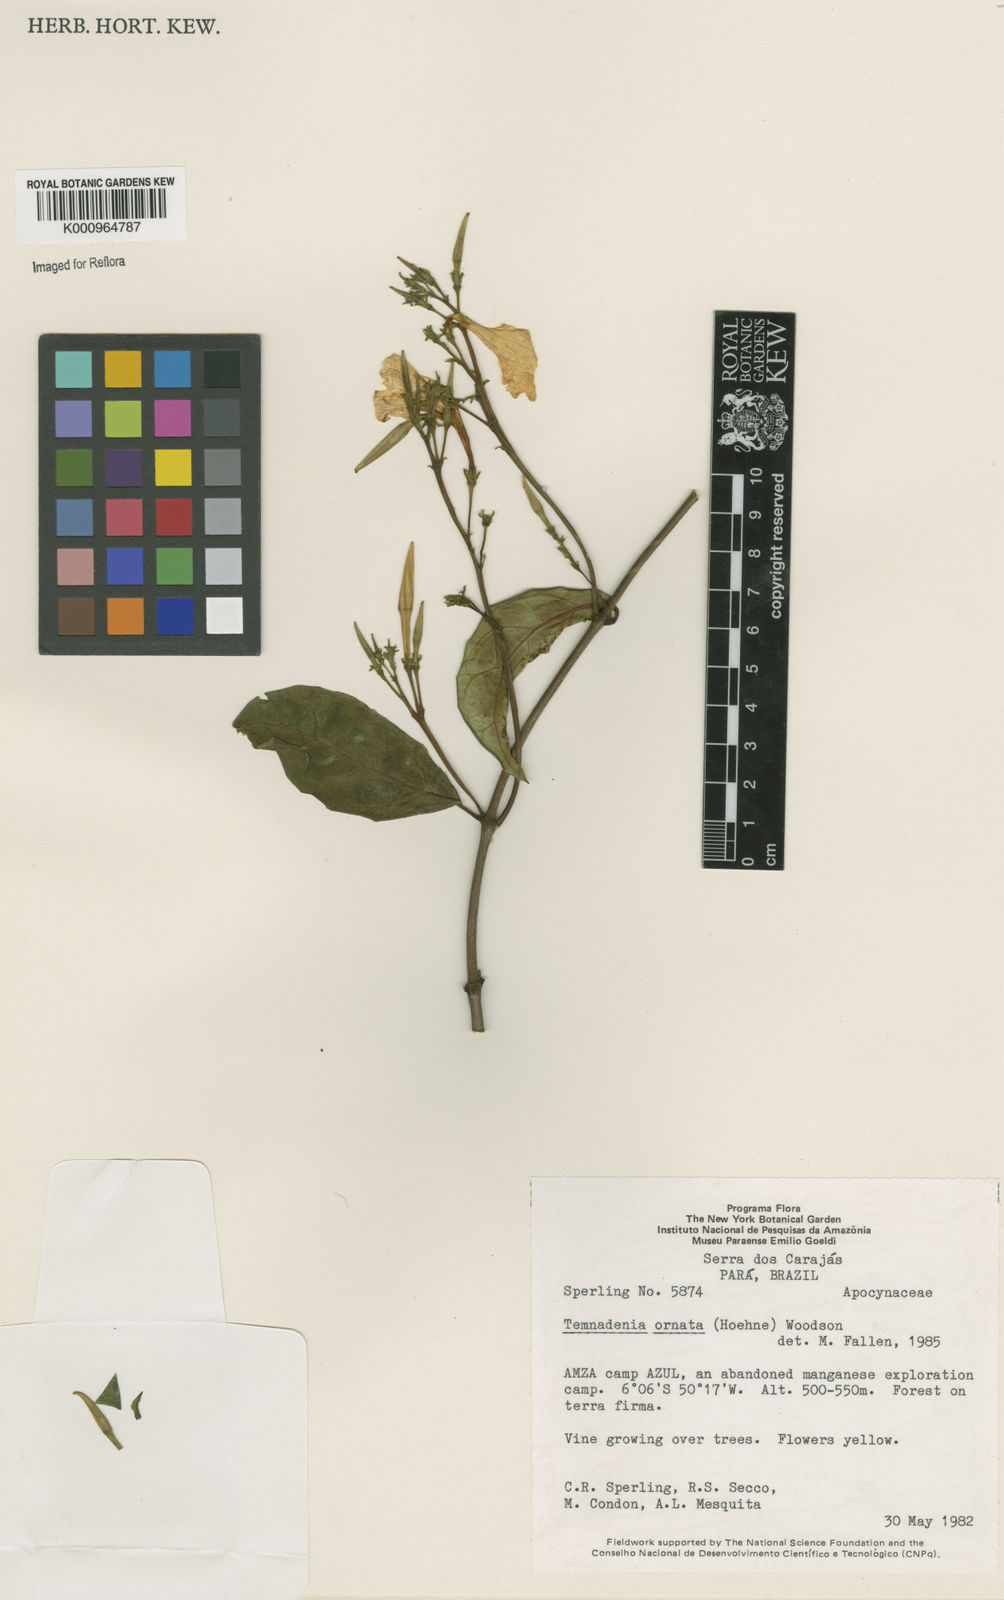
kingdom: Plantae
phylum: Tracheophyta
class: Magnoliopsida
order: Gentianales
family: Apocynaceae
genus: Prestonia
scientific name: Prestonia ornata
